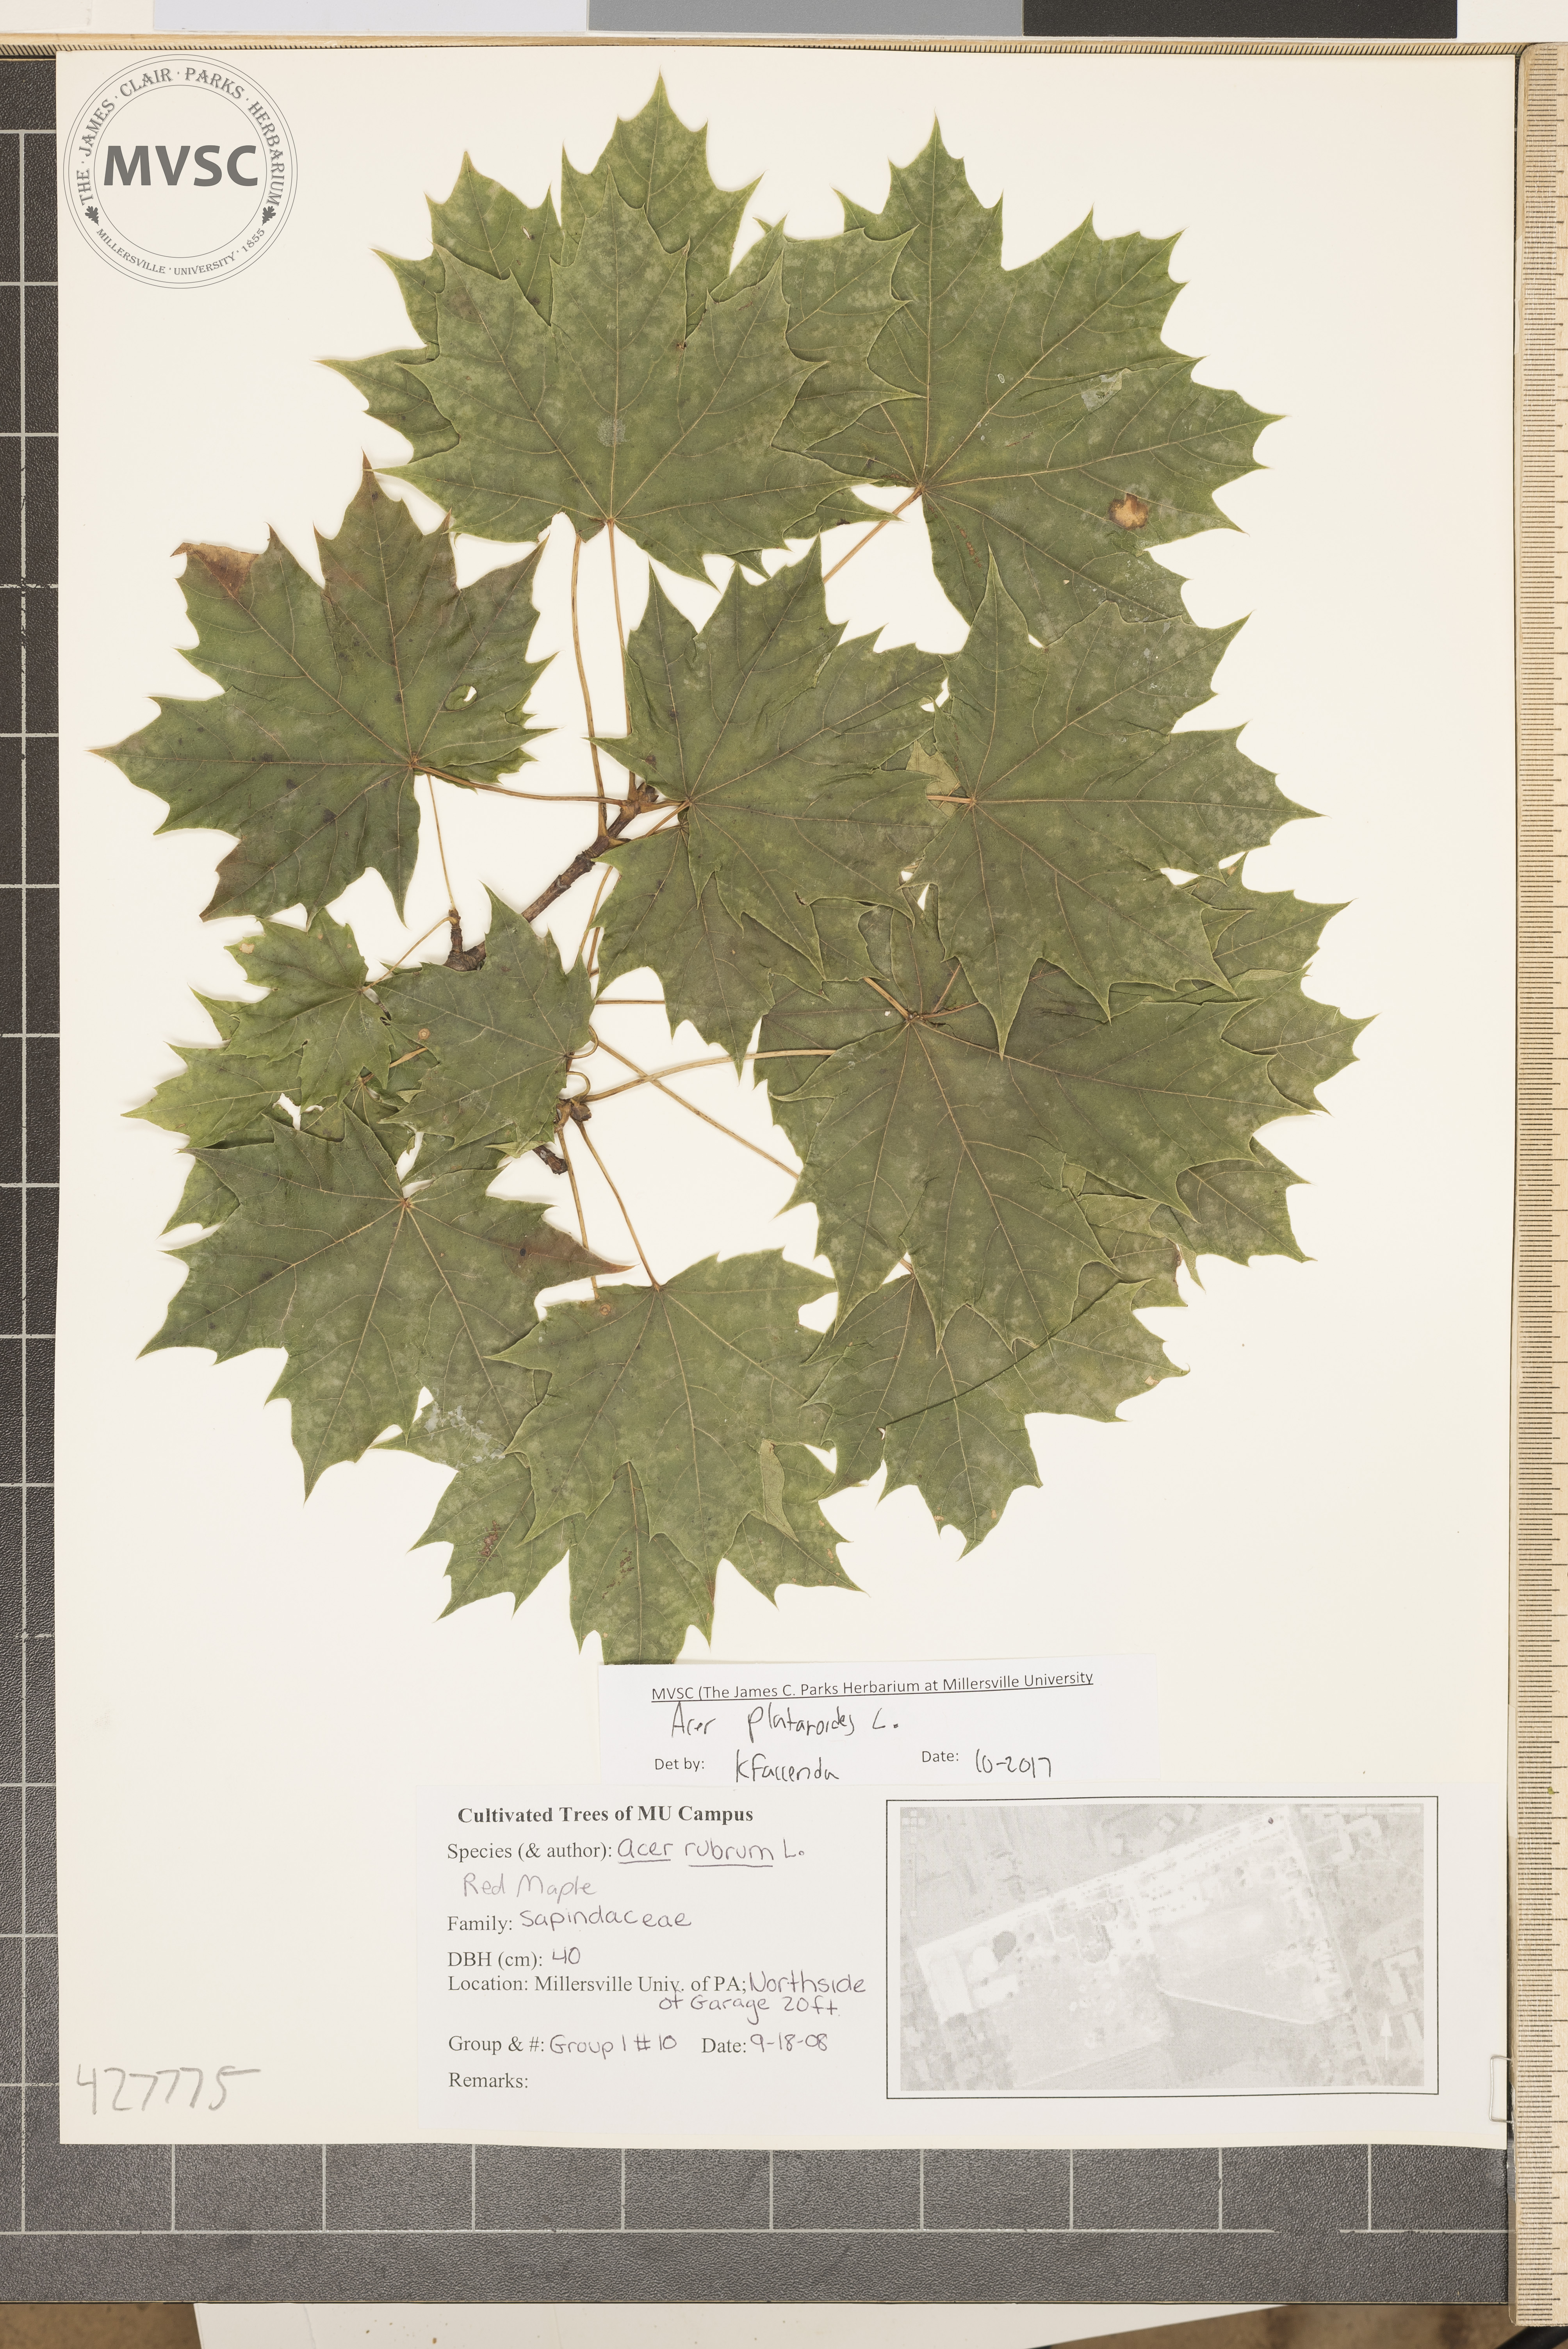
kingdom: Plantae
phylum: Tracheophyta
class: Magnoliopsida
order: Sapindales
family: Sapindaceae
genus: Acer
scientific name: Acer platanoides
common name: Norway maple
